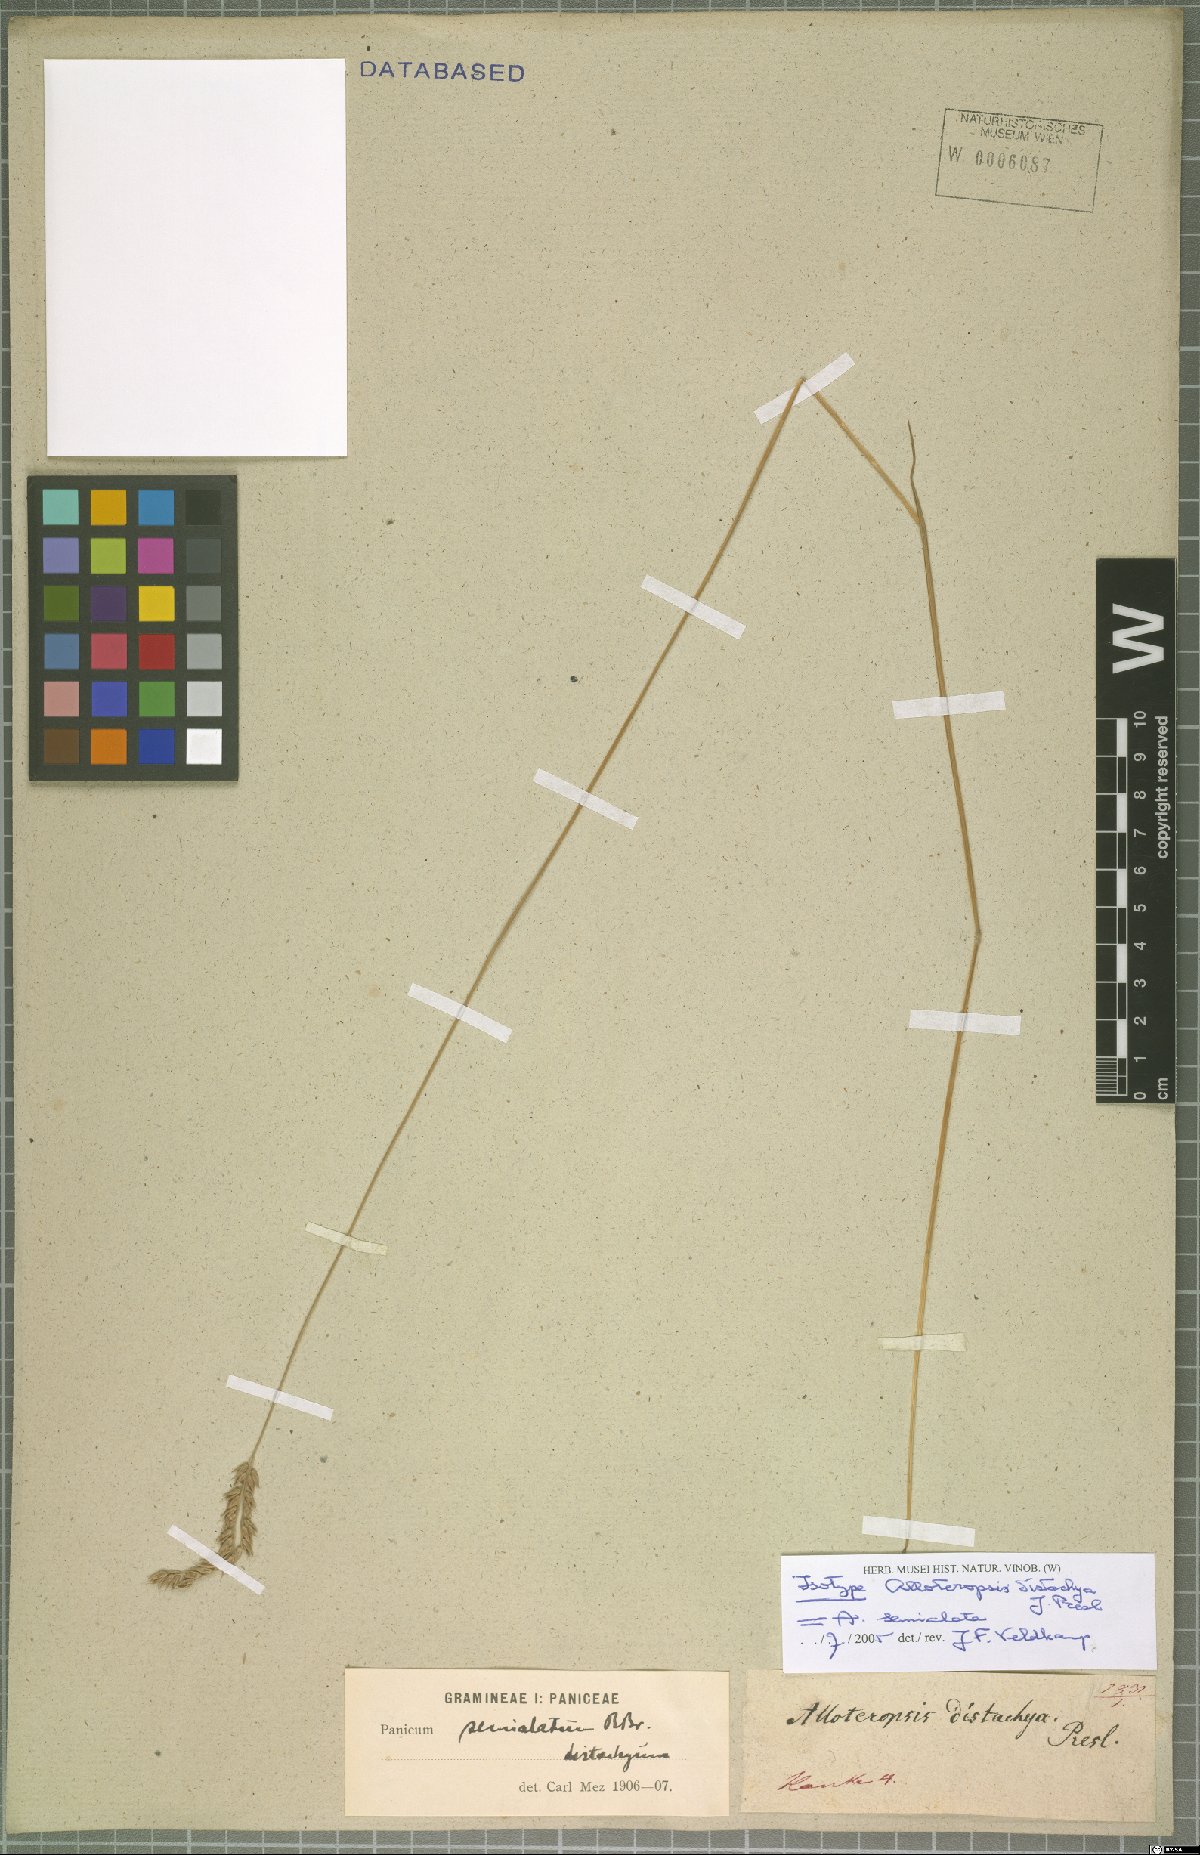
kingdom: Plantae
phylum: Tracheophyta
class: Liliopsida
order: Poales
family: Poaceae
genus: Alloteropsis
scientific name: Alloteropsis semialata
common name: Cockatoo grass
